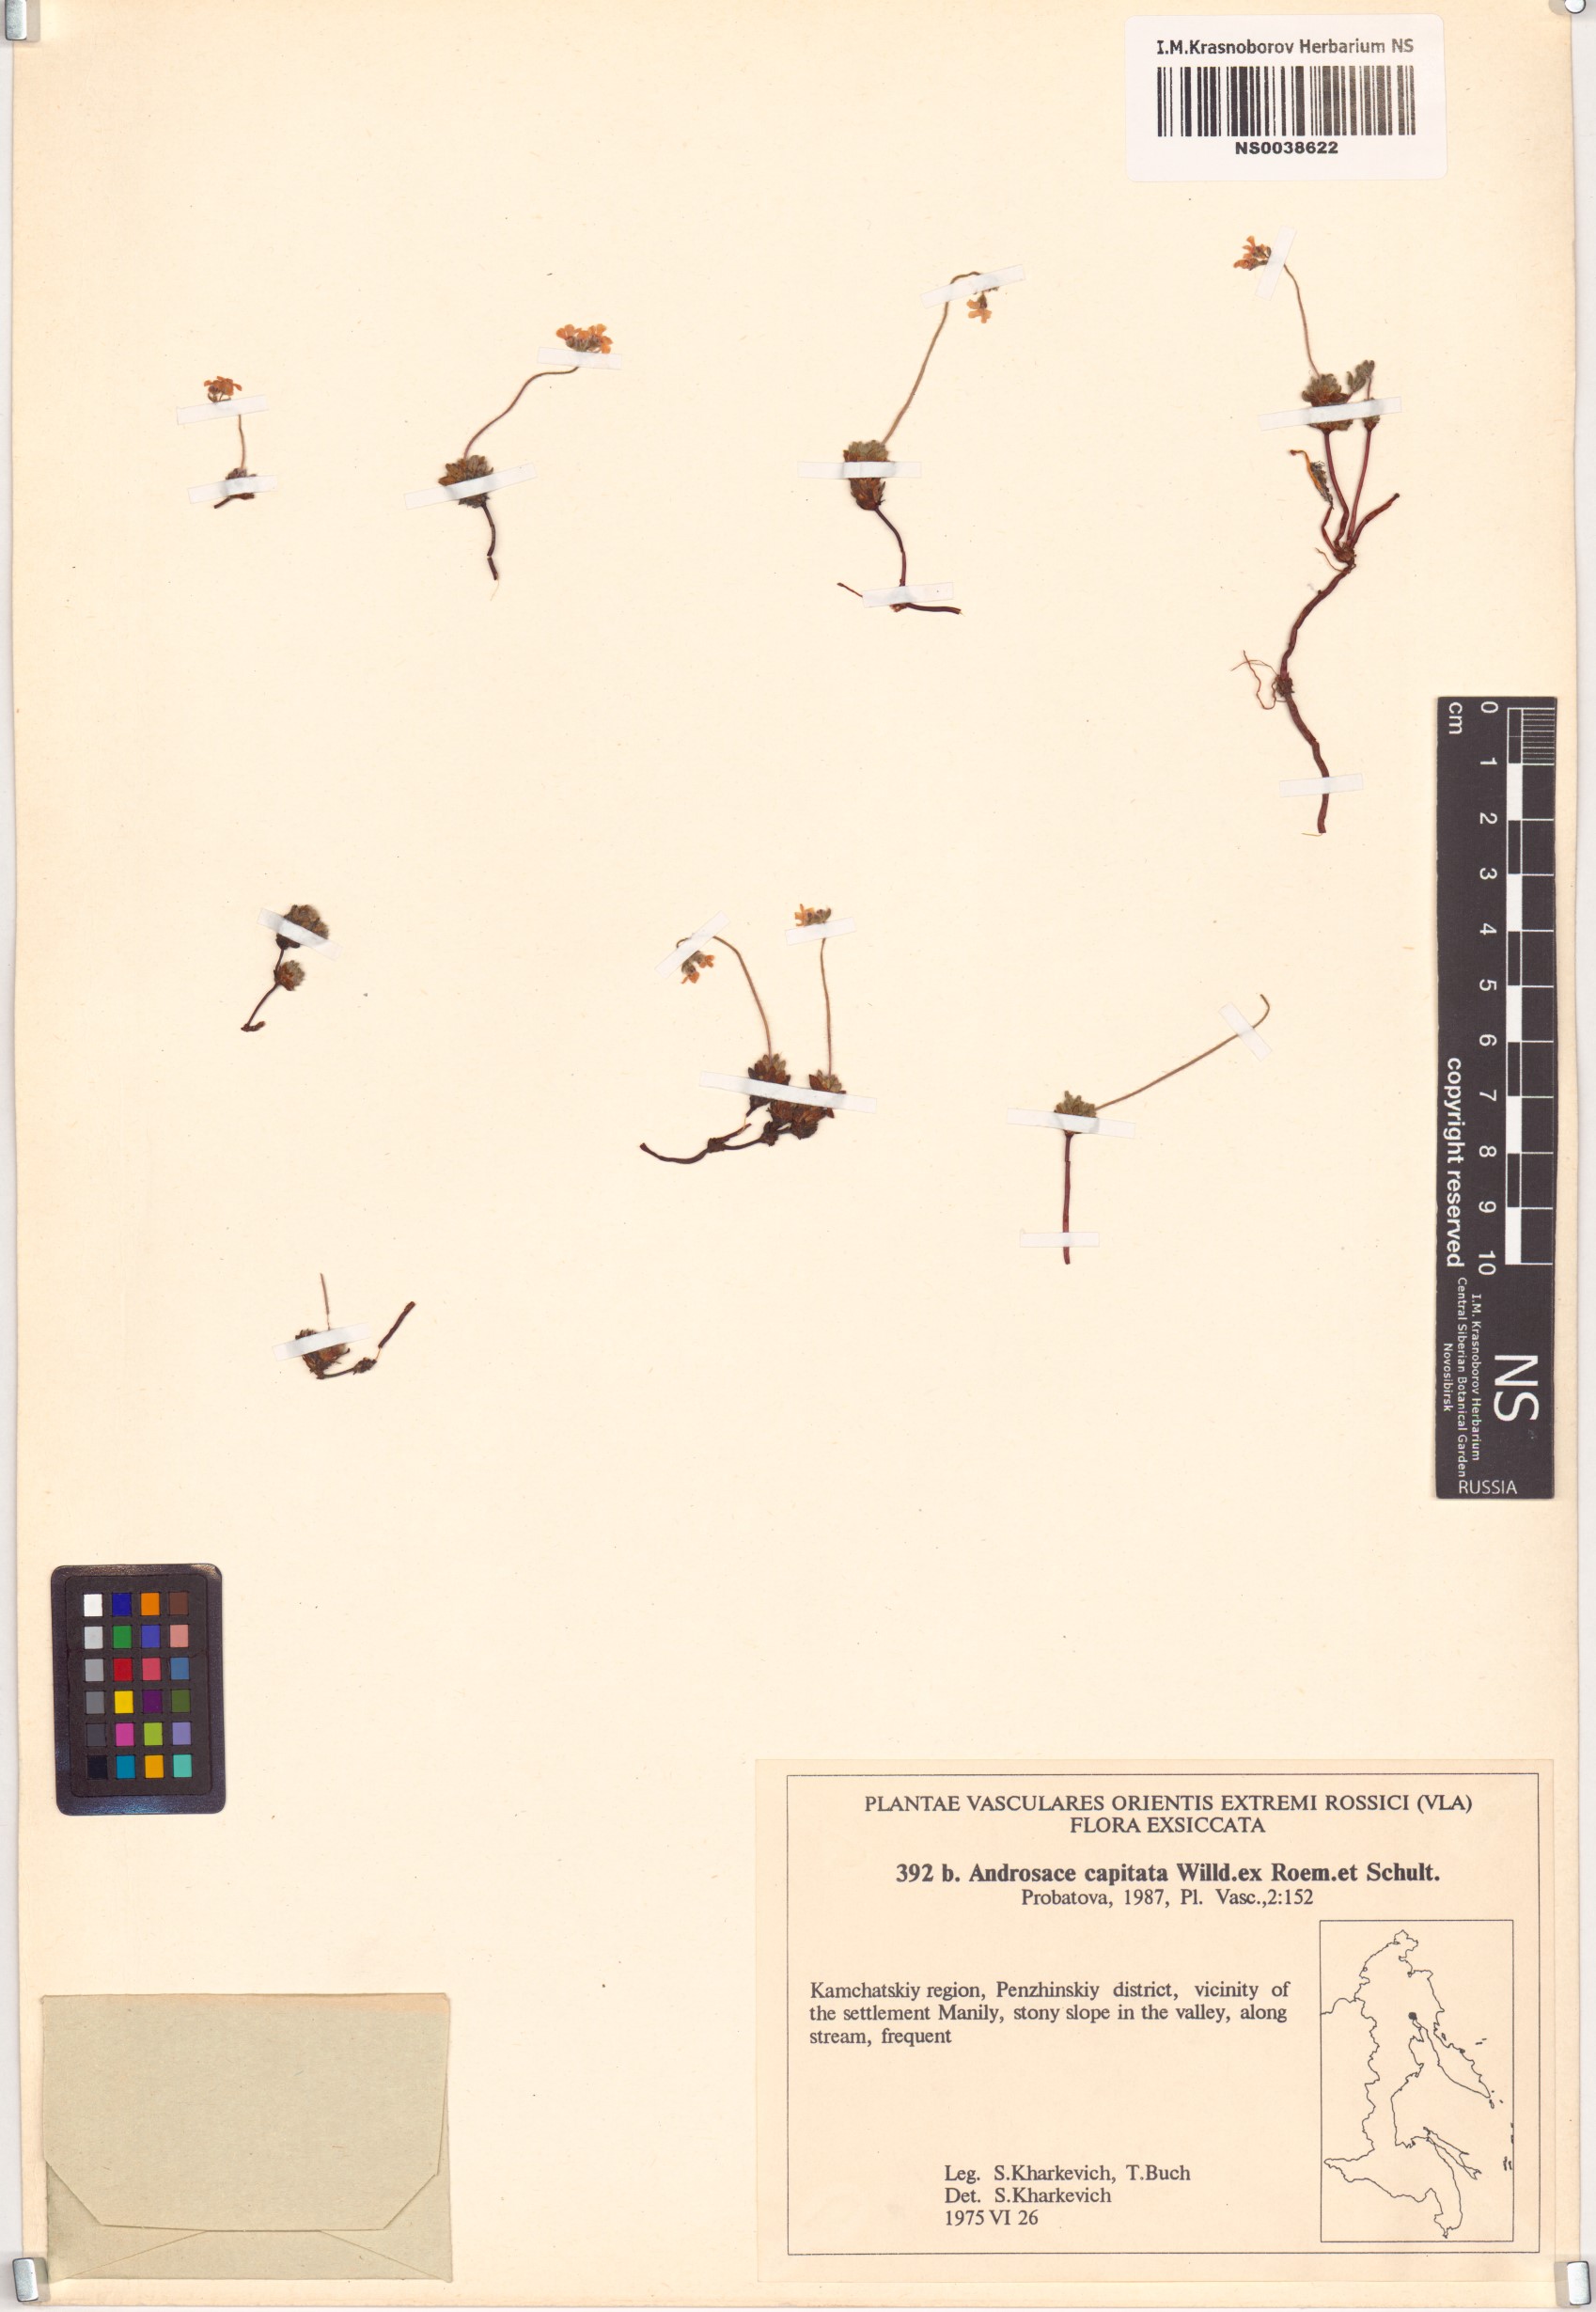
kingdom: Plantae
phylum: Tracheophyta
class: Magnoliopsida
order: Ericales
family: Primulaceae
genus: Androsace
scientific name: Androsace chamaejasme
